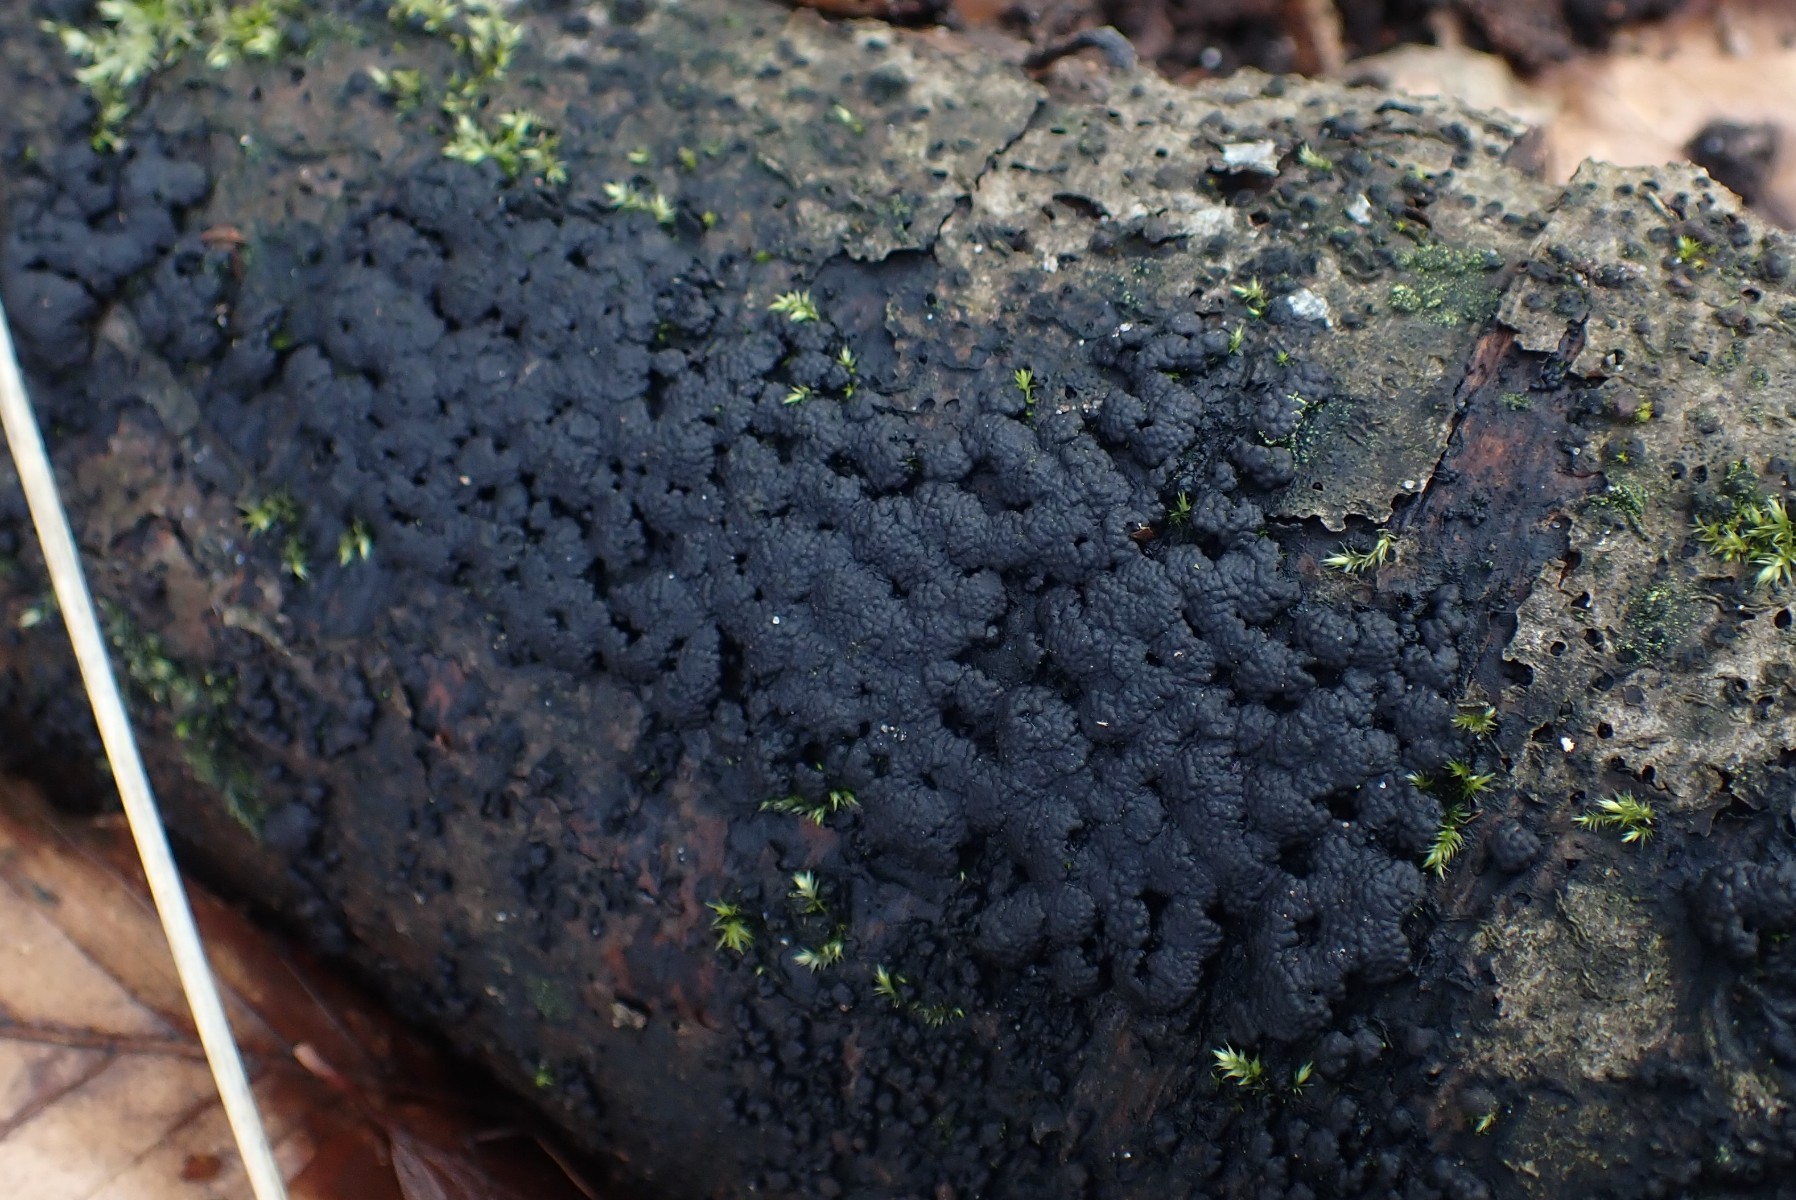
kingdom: Fungi
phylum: Ascomycota
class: Sordariomycetes
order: Xylariales
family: Hypoxylaceae
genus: Jackrogersella
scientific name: Jackrogersella cohaerens
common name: sammenflydende kulbær
